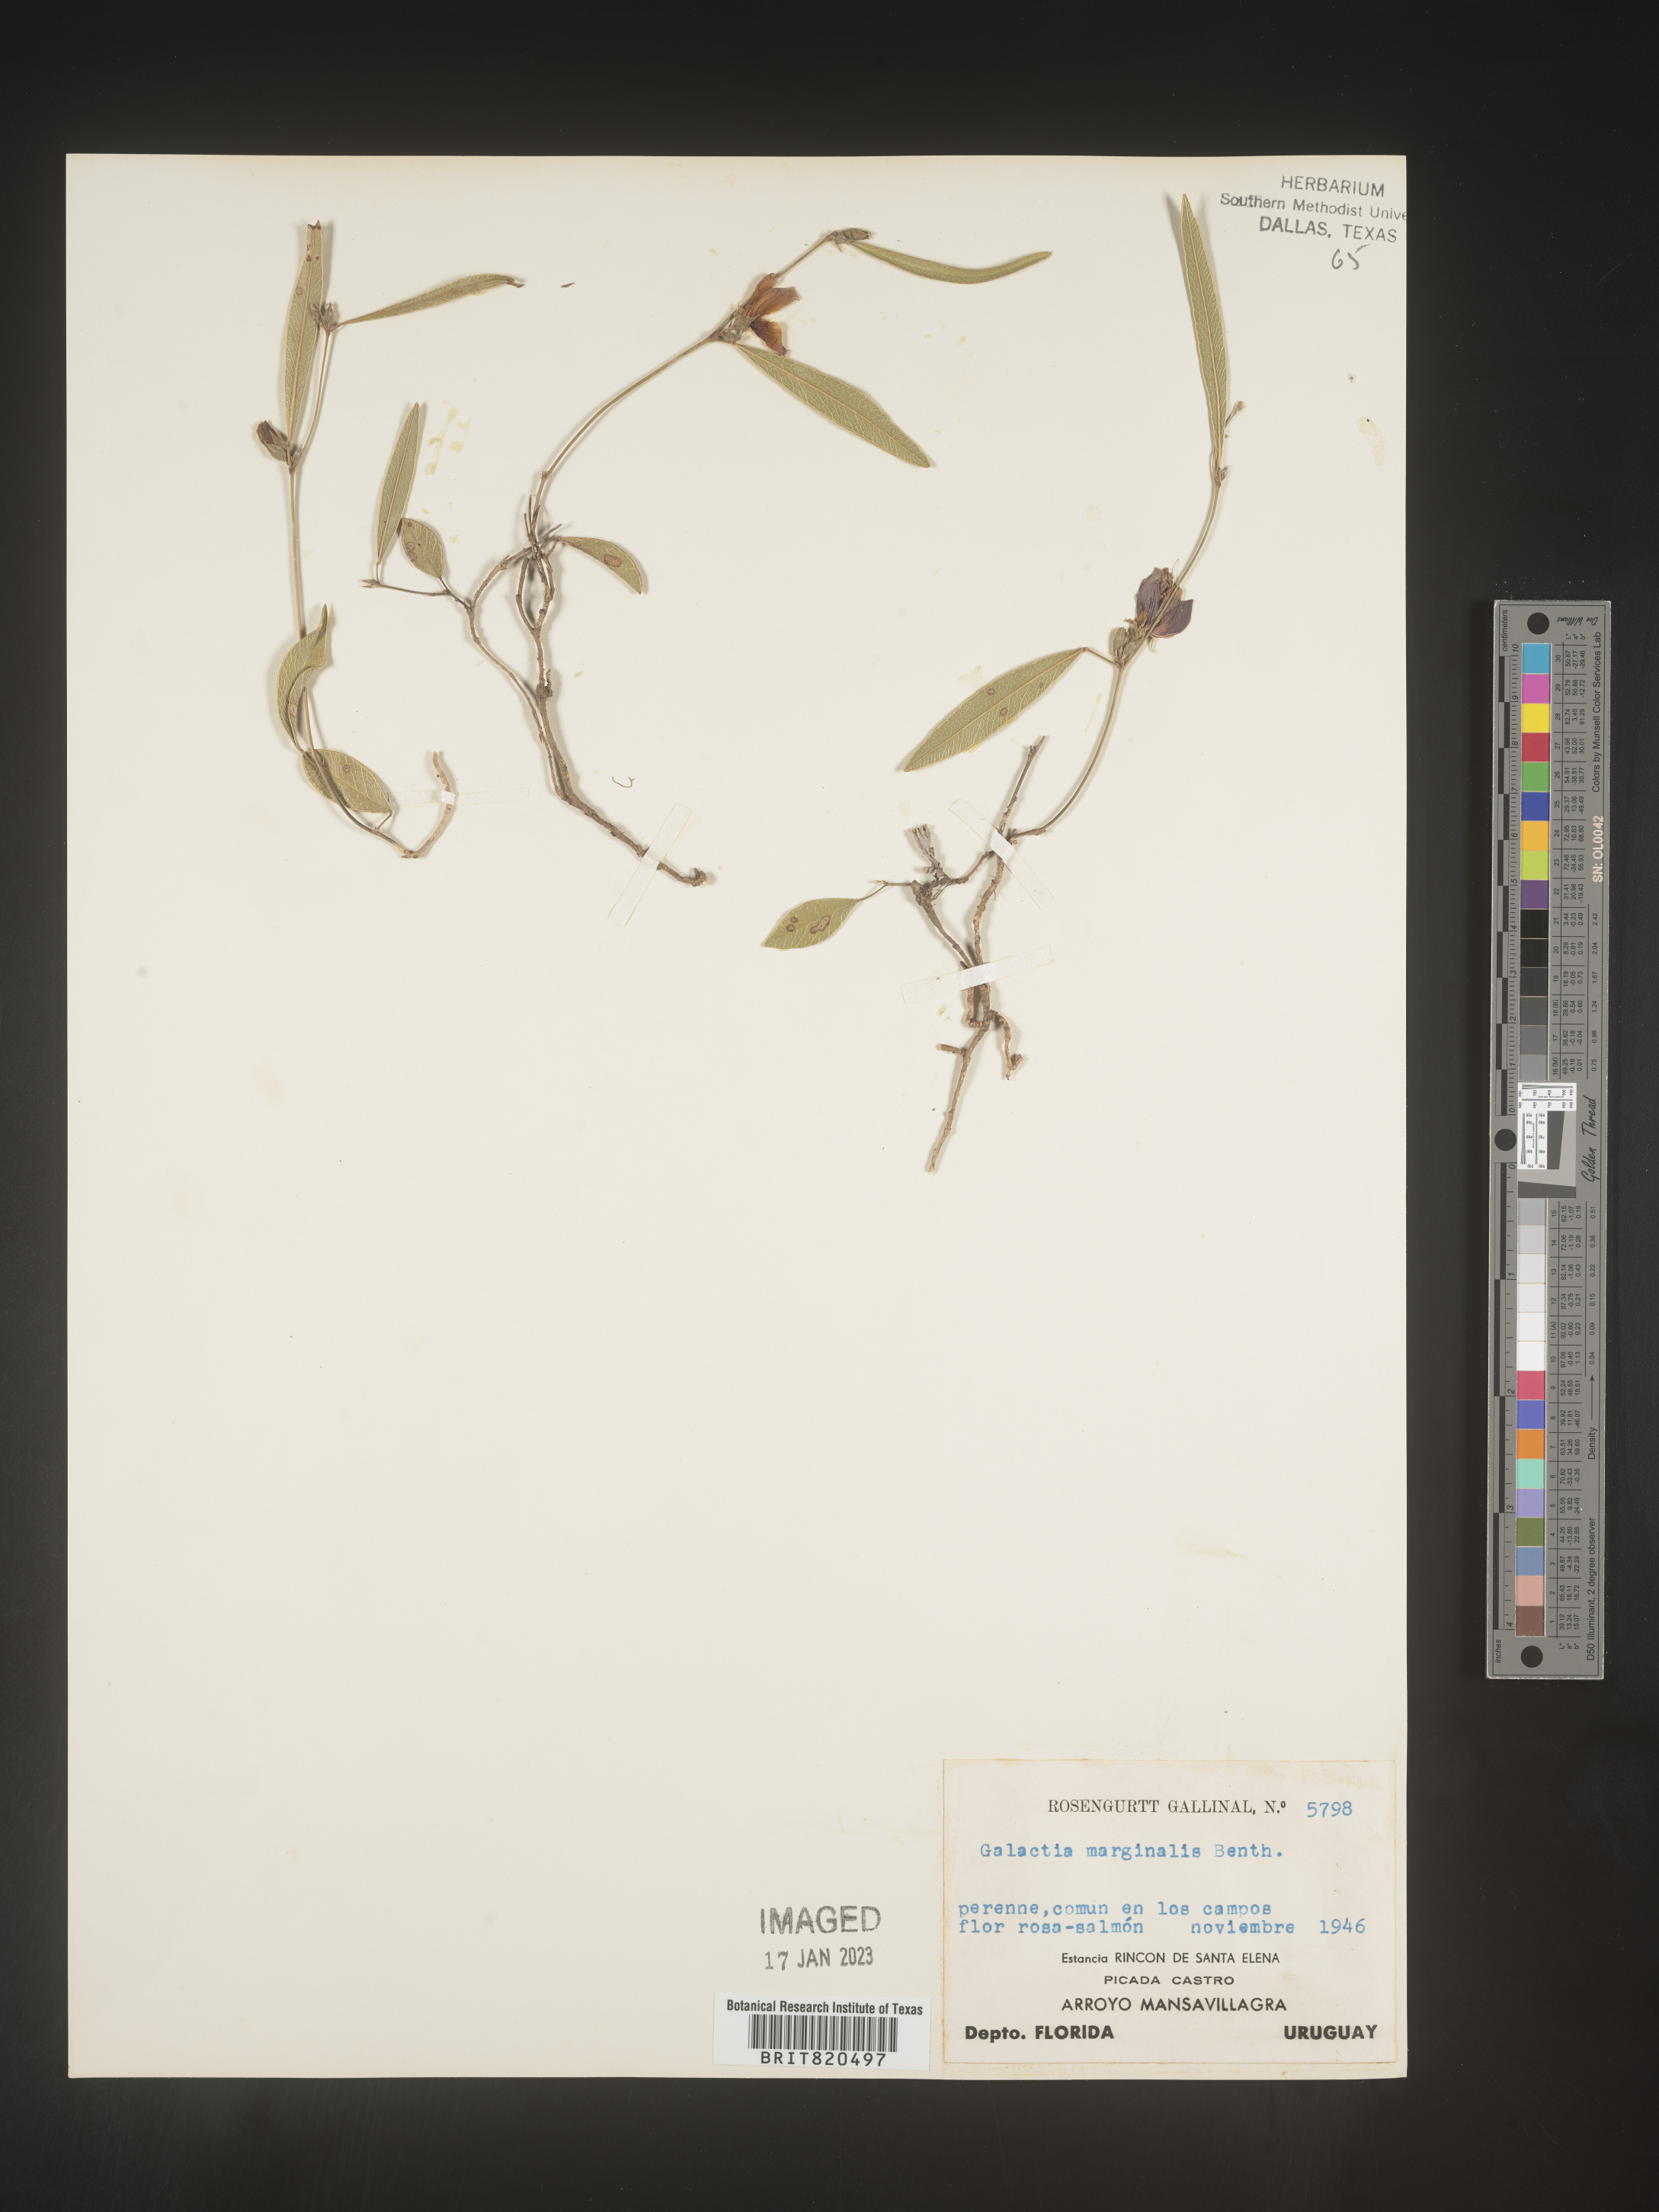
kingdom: Plantae
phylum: Tracheophyta
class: Magnoliopsida
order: Fabales
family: Fabaceae
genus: Galactia
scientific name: Galactia
